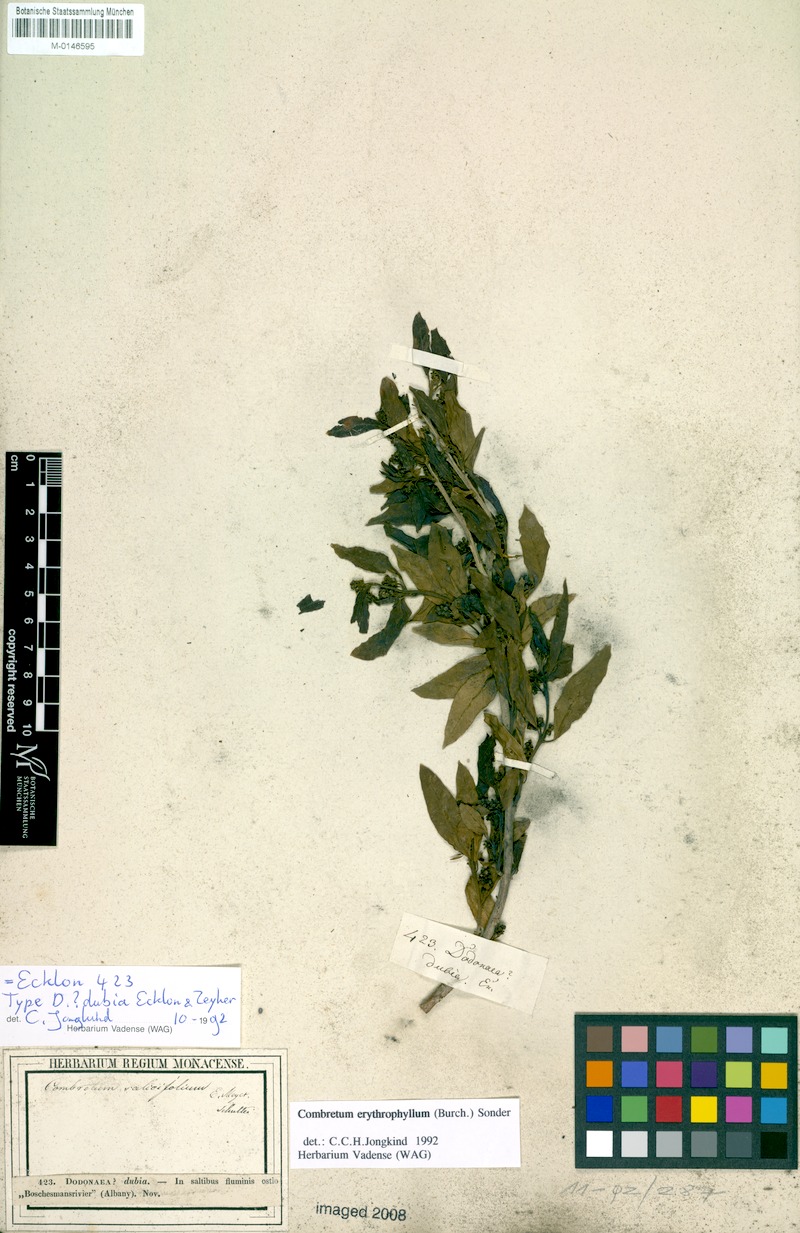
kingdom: Plantae
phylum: Tracheophyta
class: Magnoliopsida
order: Myrtales
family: Combretaceae
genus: Combretum
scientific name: Combretum erythrophyllum
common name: Bush-willow
